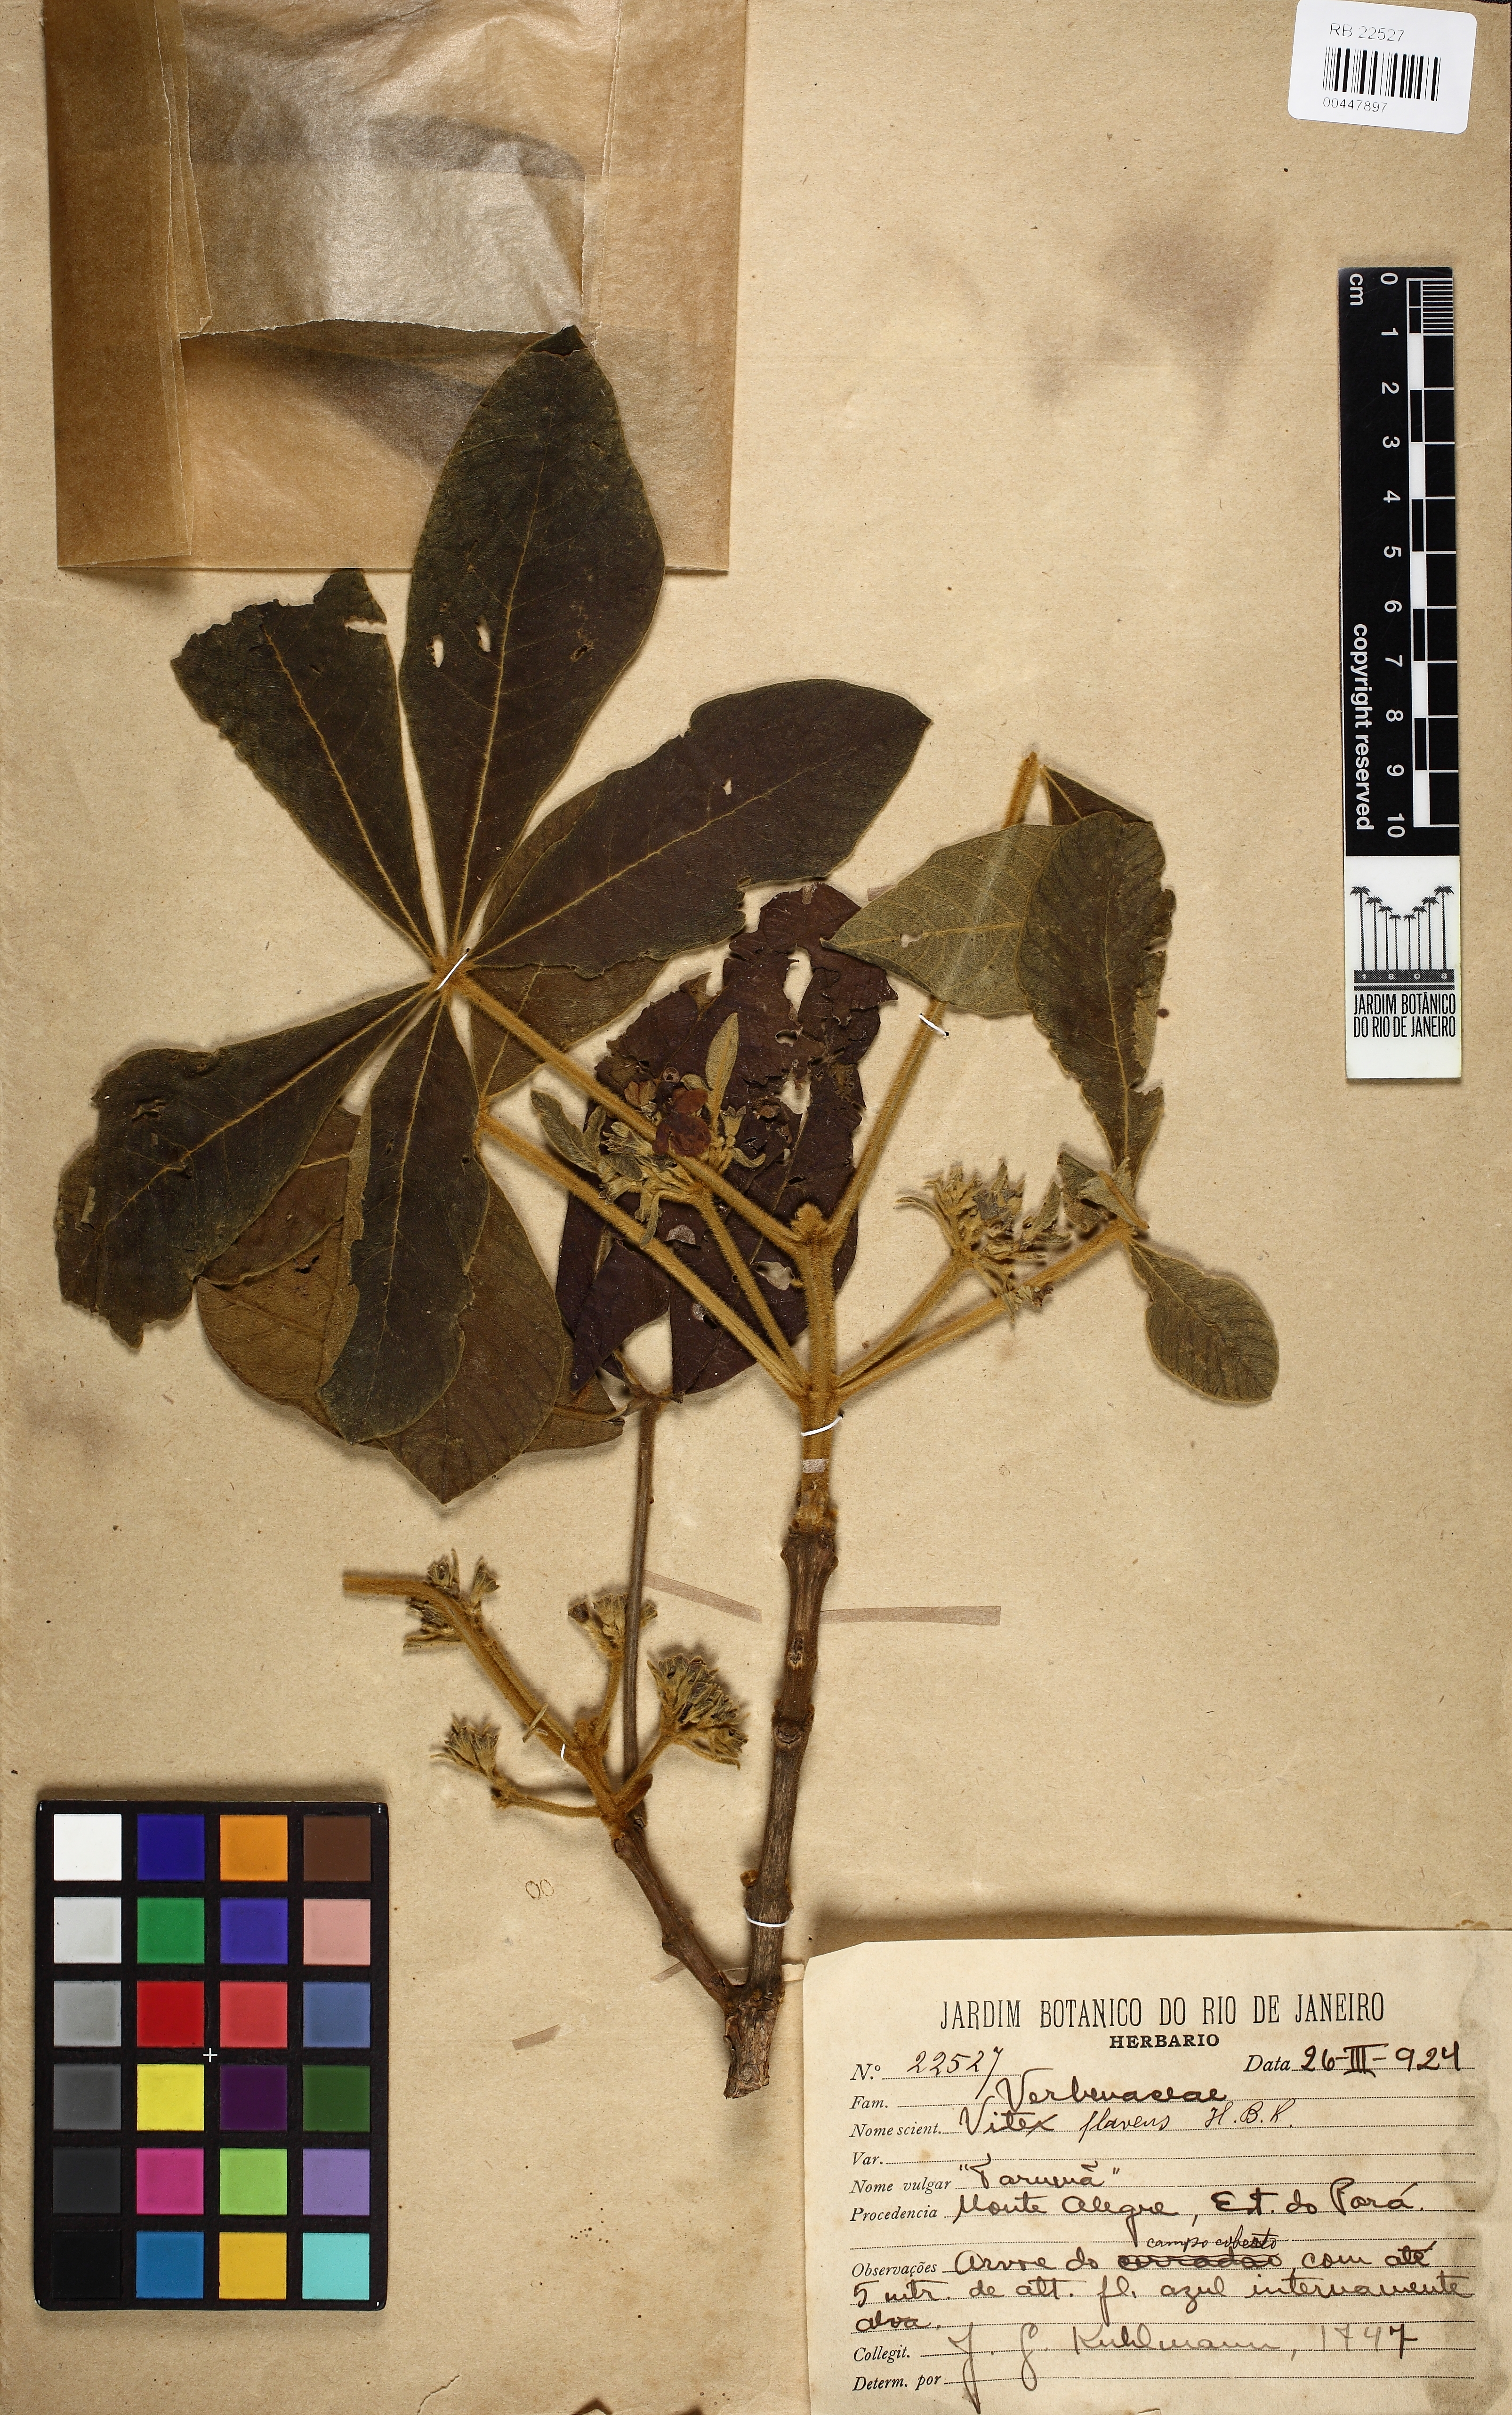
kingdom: Plantae
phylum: Tracheophyta
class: Magnoliopsida
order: Lamiales
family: Lamiaceae
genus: Vitex
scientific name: Vitex flavens
